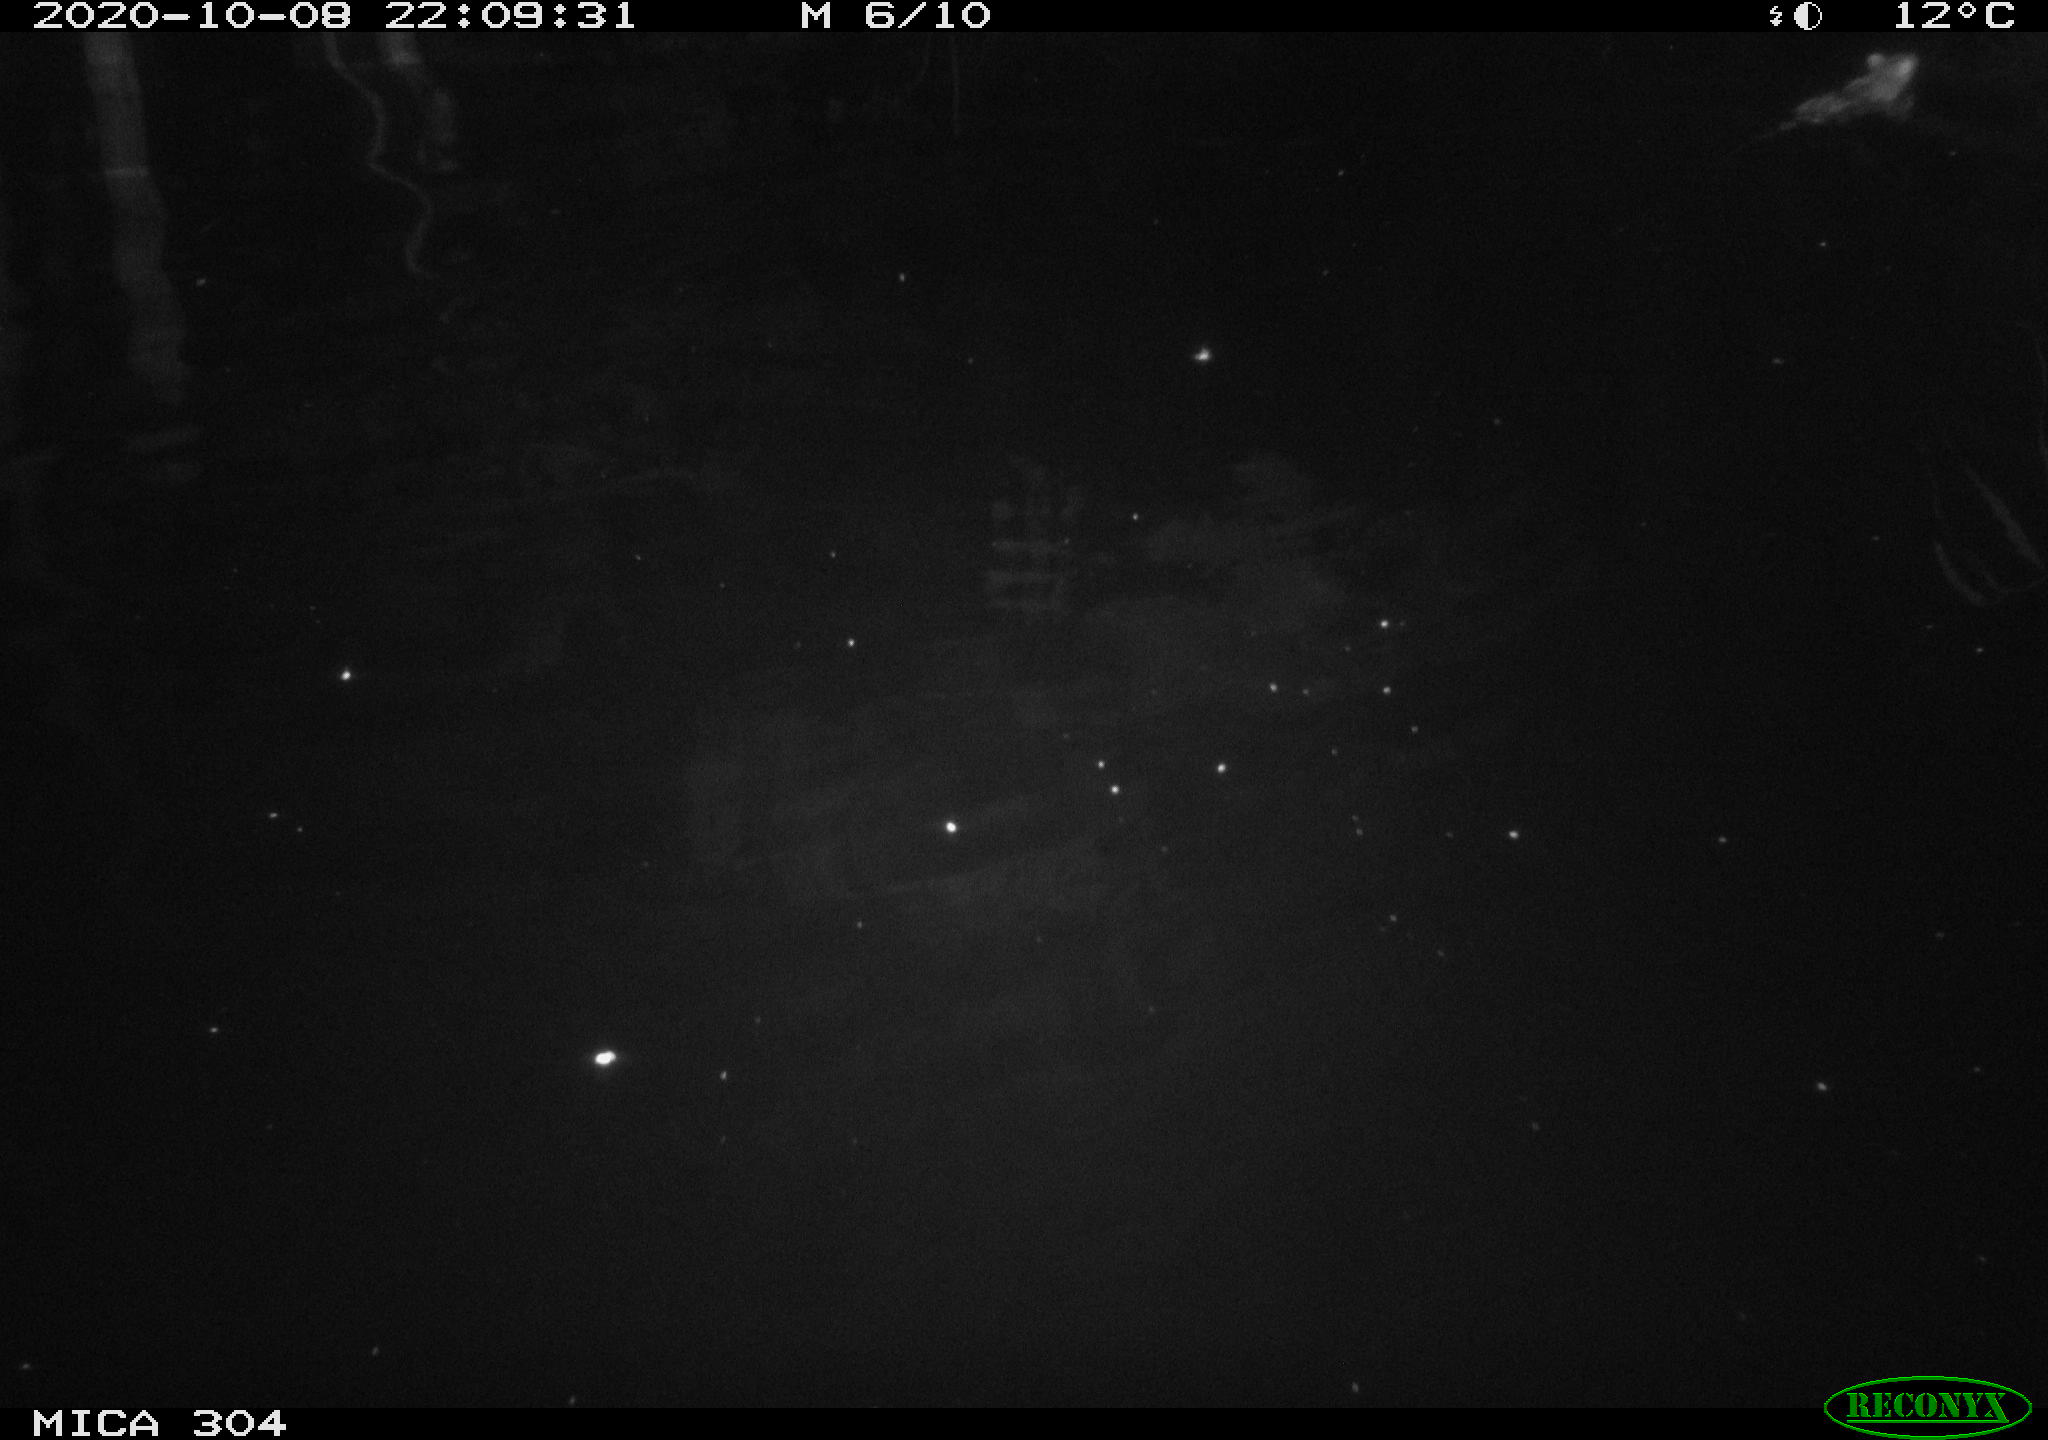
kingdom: Animalia
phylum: Chordata
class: Mammalia
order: Rodentia
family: Muridae
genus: Rattus
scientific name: Rattus norvegicus
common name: Brown rat
